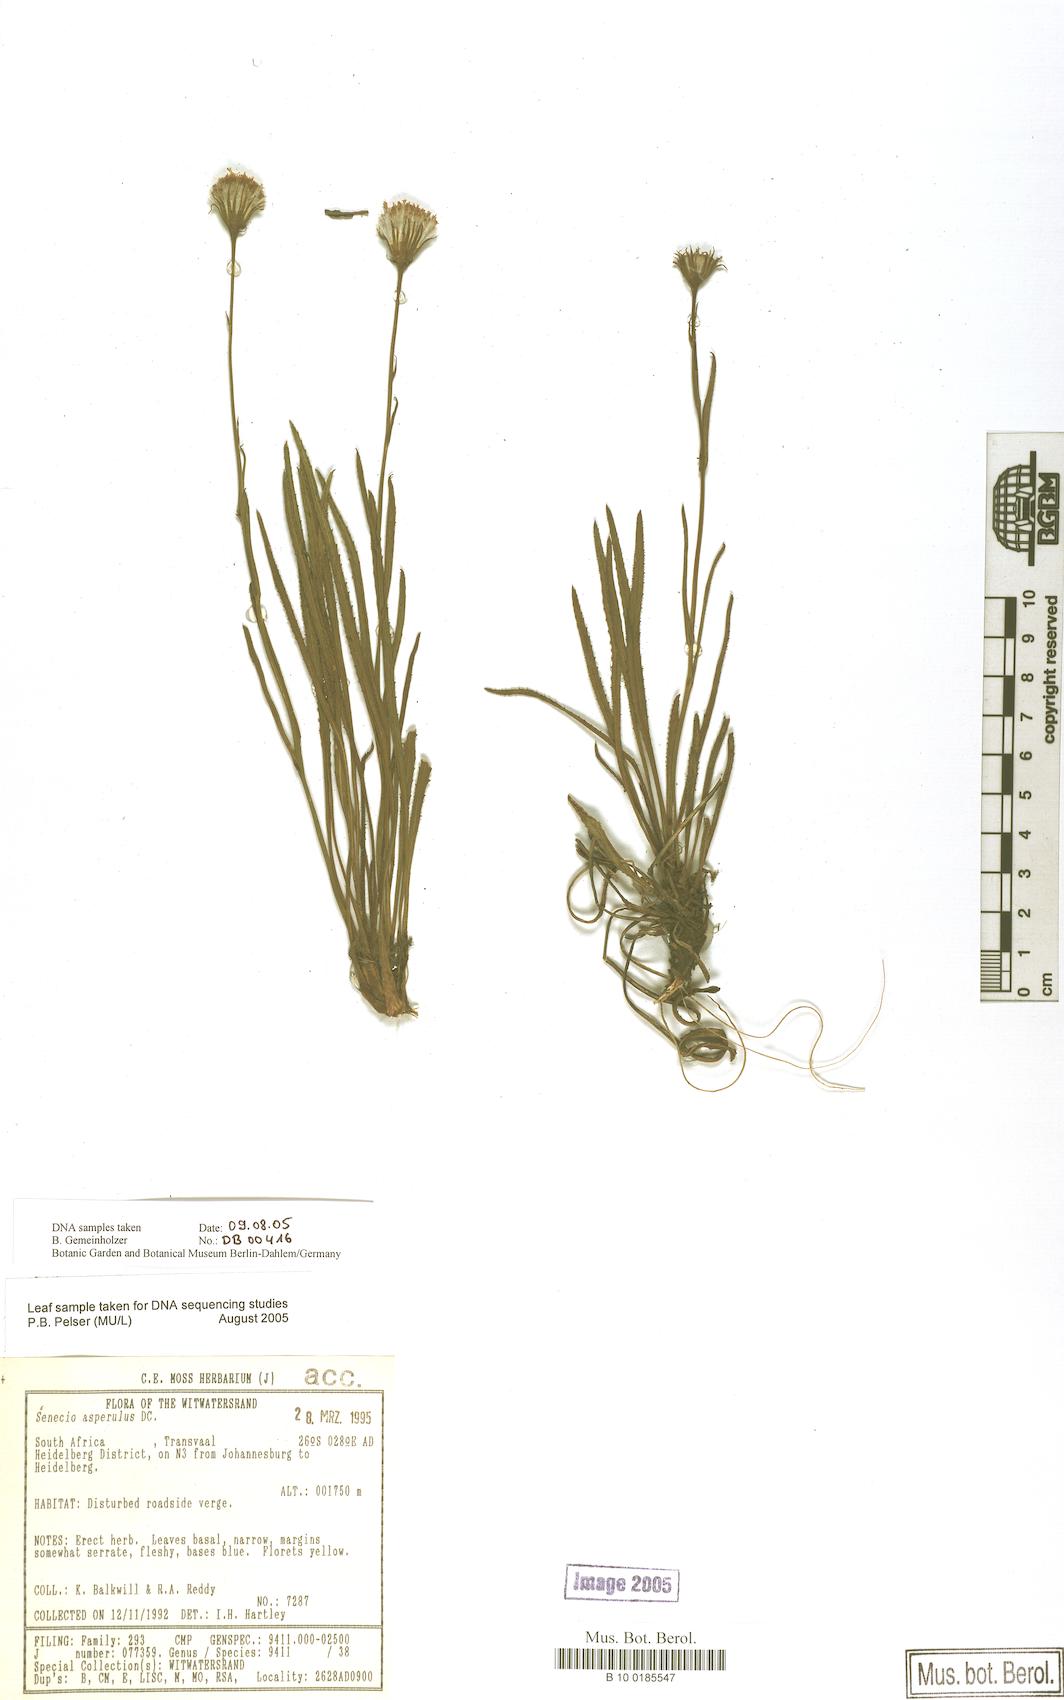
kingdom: Plantae
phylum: Tracheophyta
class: Magnoliopsida
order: Asterales
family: Asteraceae
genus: Senecio
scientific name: Senecio asperulus
